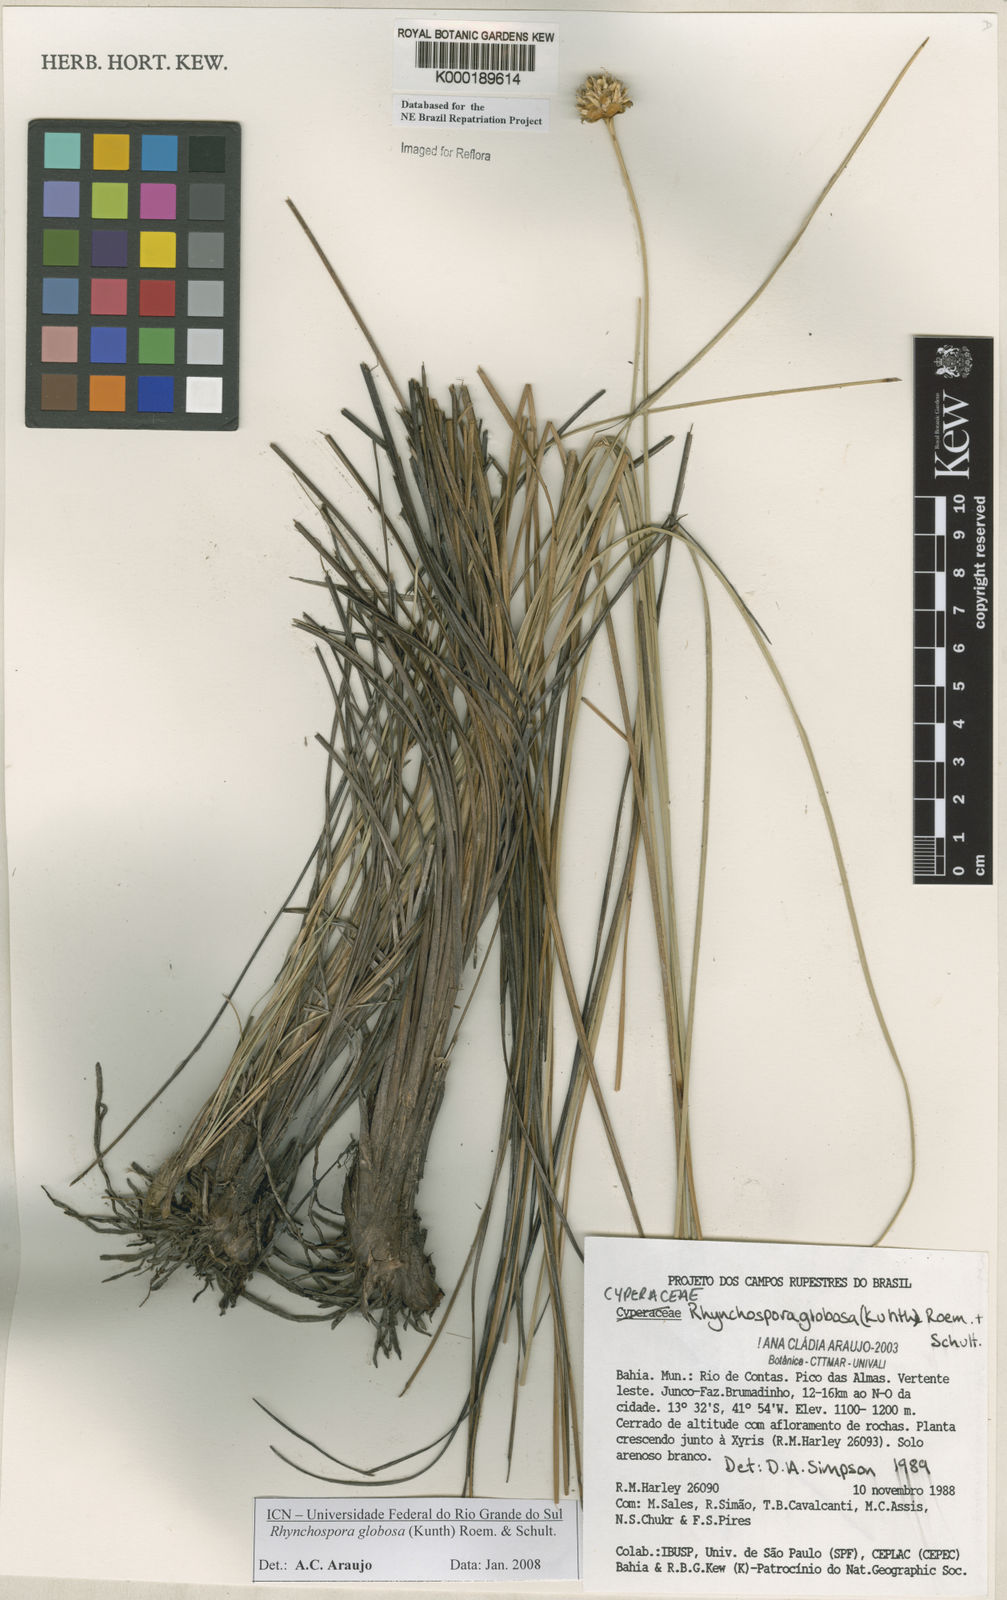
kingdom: Plantae
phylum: Tracheophyta
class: Liliopsida
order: Poales
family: Cyperaceae
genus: Rhynchospora
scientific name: Rhynchospora globosa
